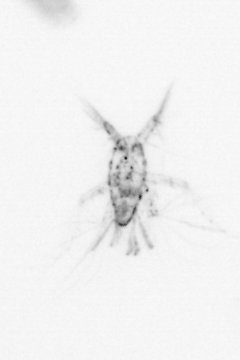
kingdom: Animalia
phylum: Arthropoda
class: Copepoda
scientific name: Copepoda
